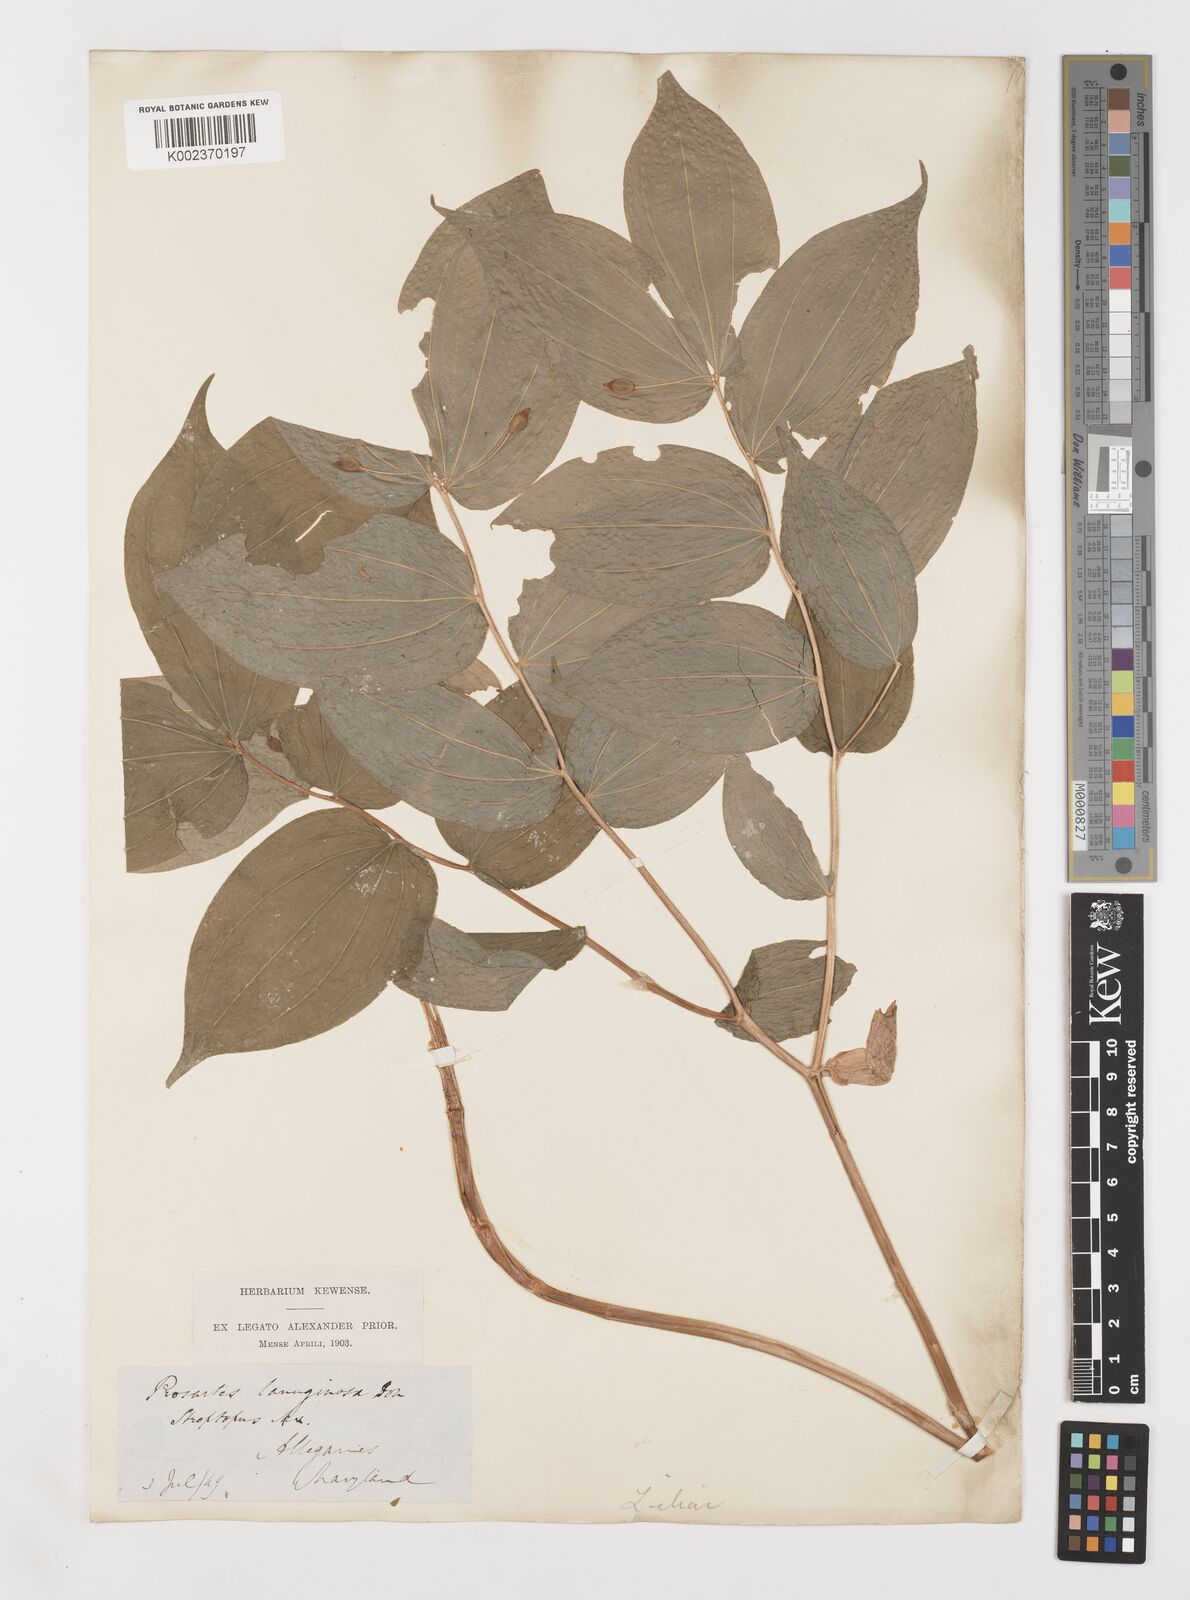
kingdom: Plantae
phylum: Tracheophyta
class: Liliopsida
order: Liliales
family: Liliaceae
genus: Prosartes
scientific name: Prosartes lanuginosa
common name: Hairy mandarin
